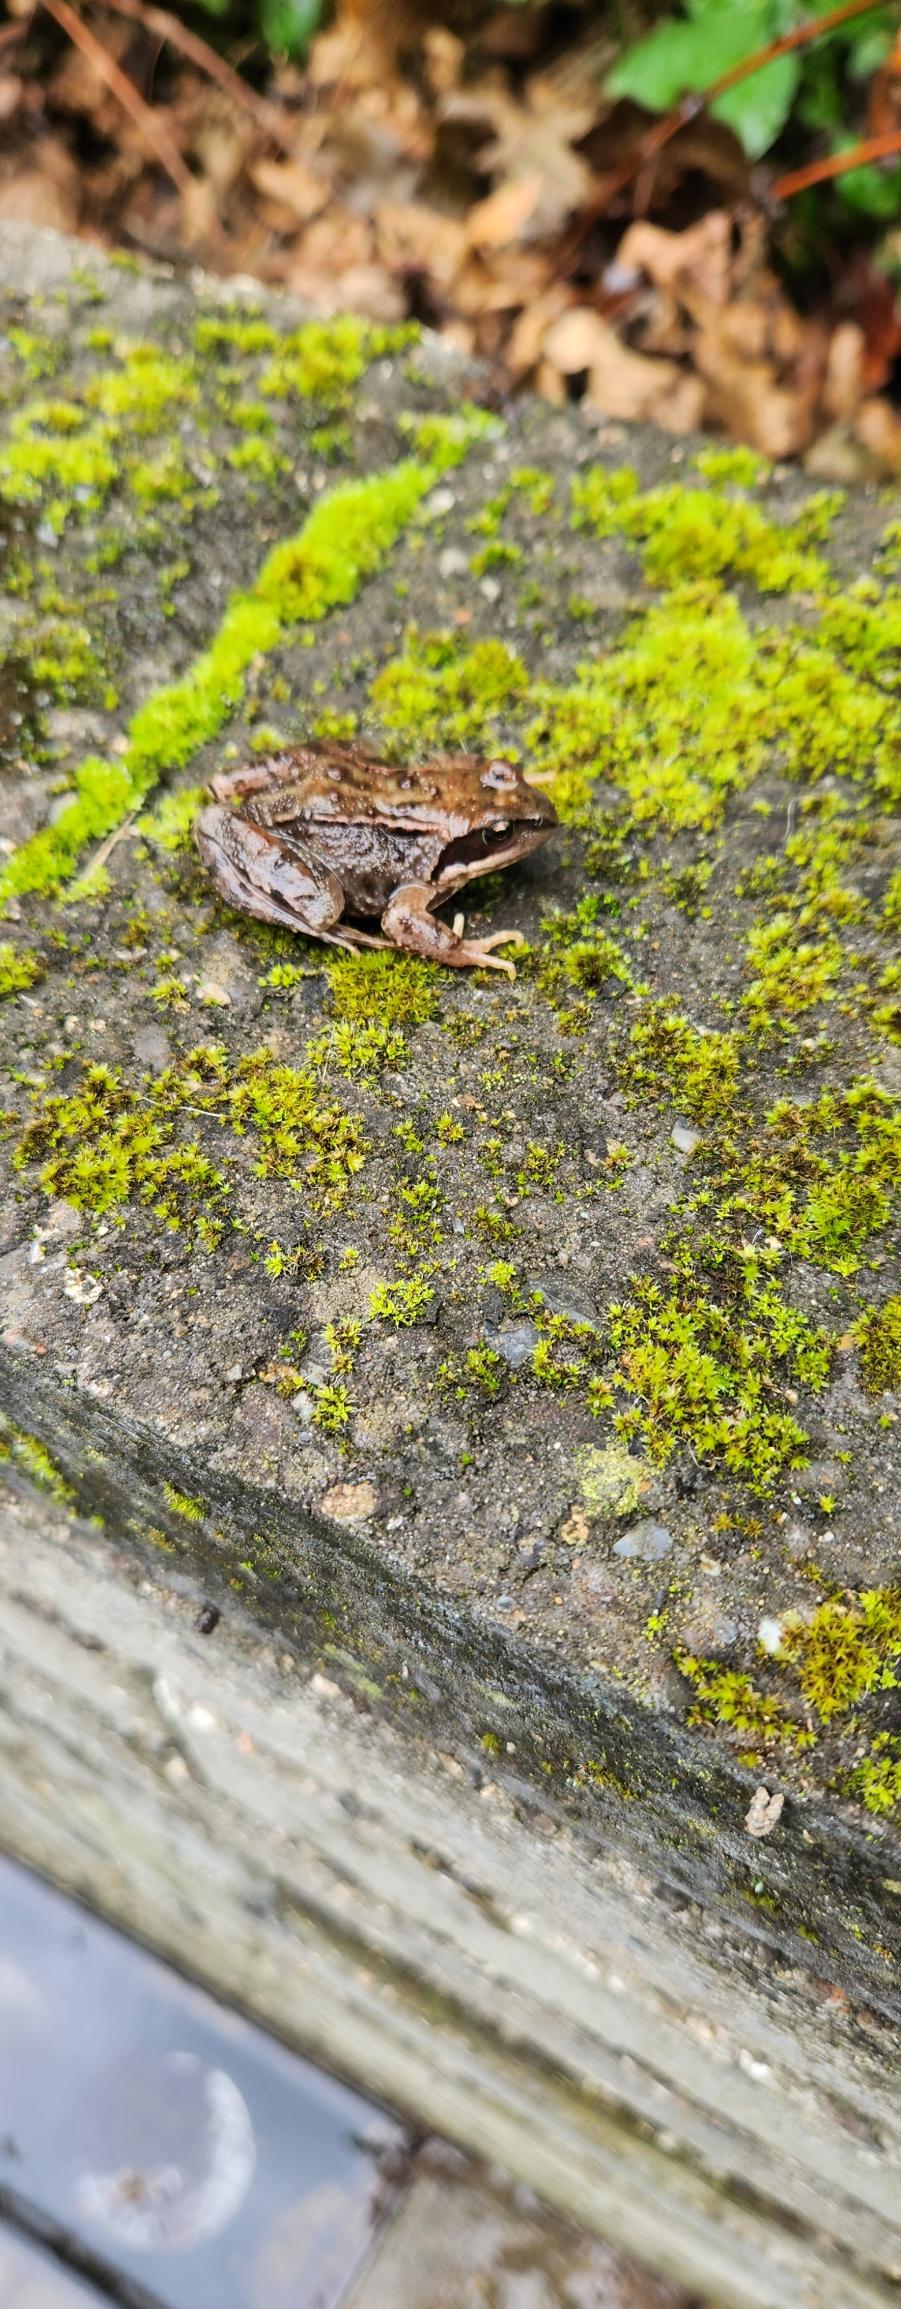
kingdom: Animalia
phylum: Chordata
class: Amphibia
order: Anura
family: Ranidae
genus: Rana
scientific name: Rana temporaria
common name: Butsnudet frø
